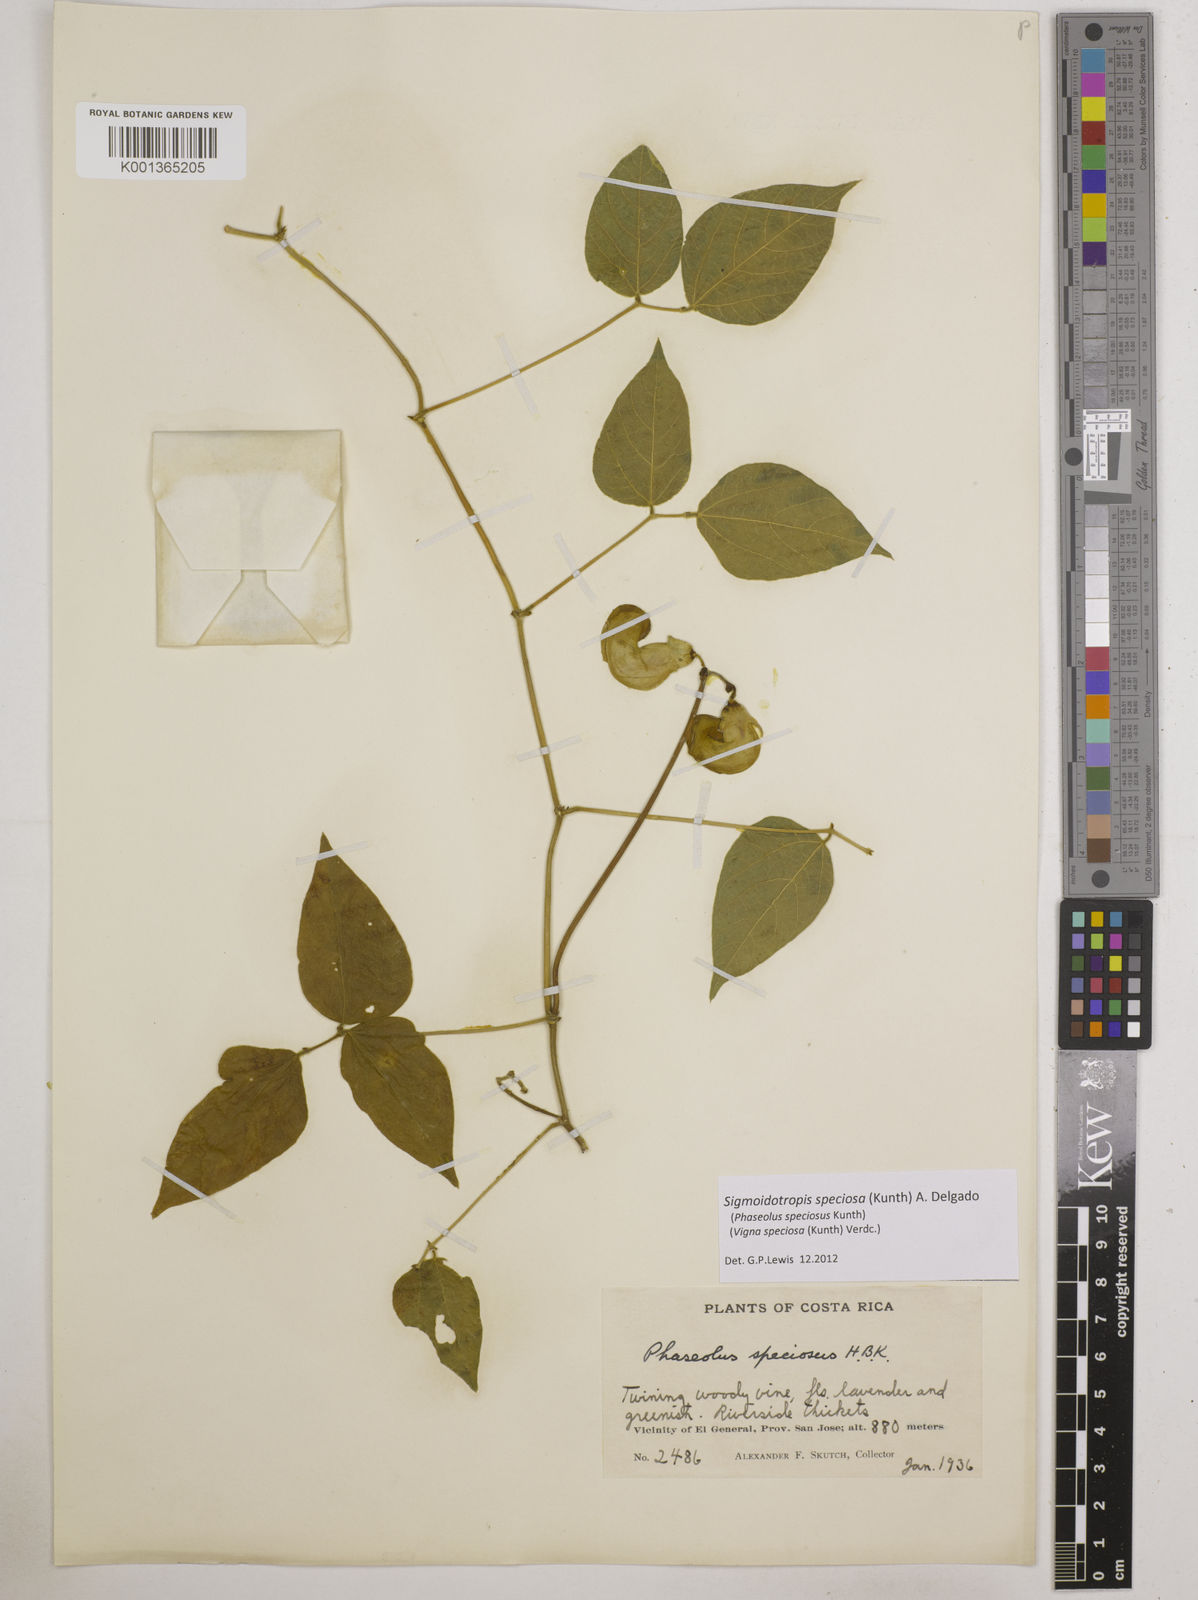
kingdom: Plantae
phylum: Tracheophyta
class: Magnoliopsida
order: Fabales
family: Fabaceae
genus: Sigmoidotropis
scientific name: Sigmoidotropis speciosa
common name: Snail flower
